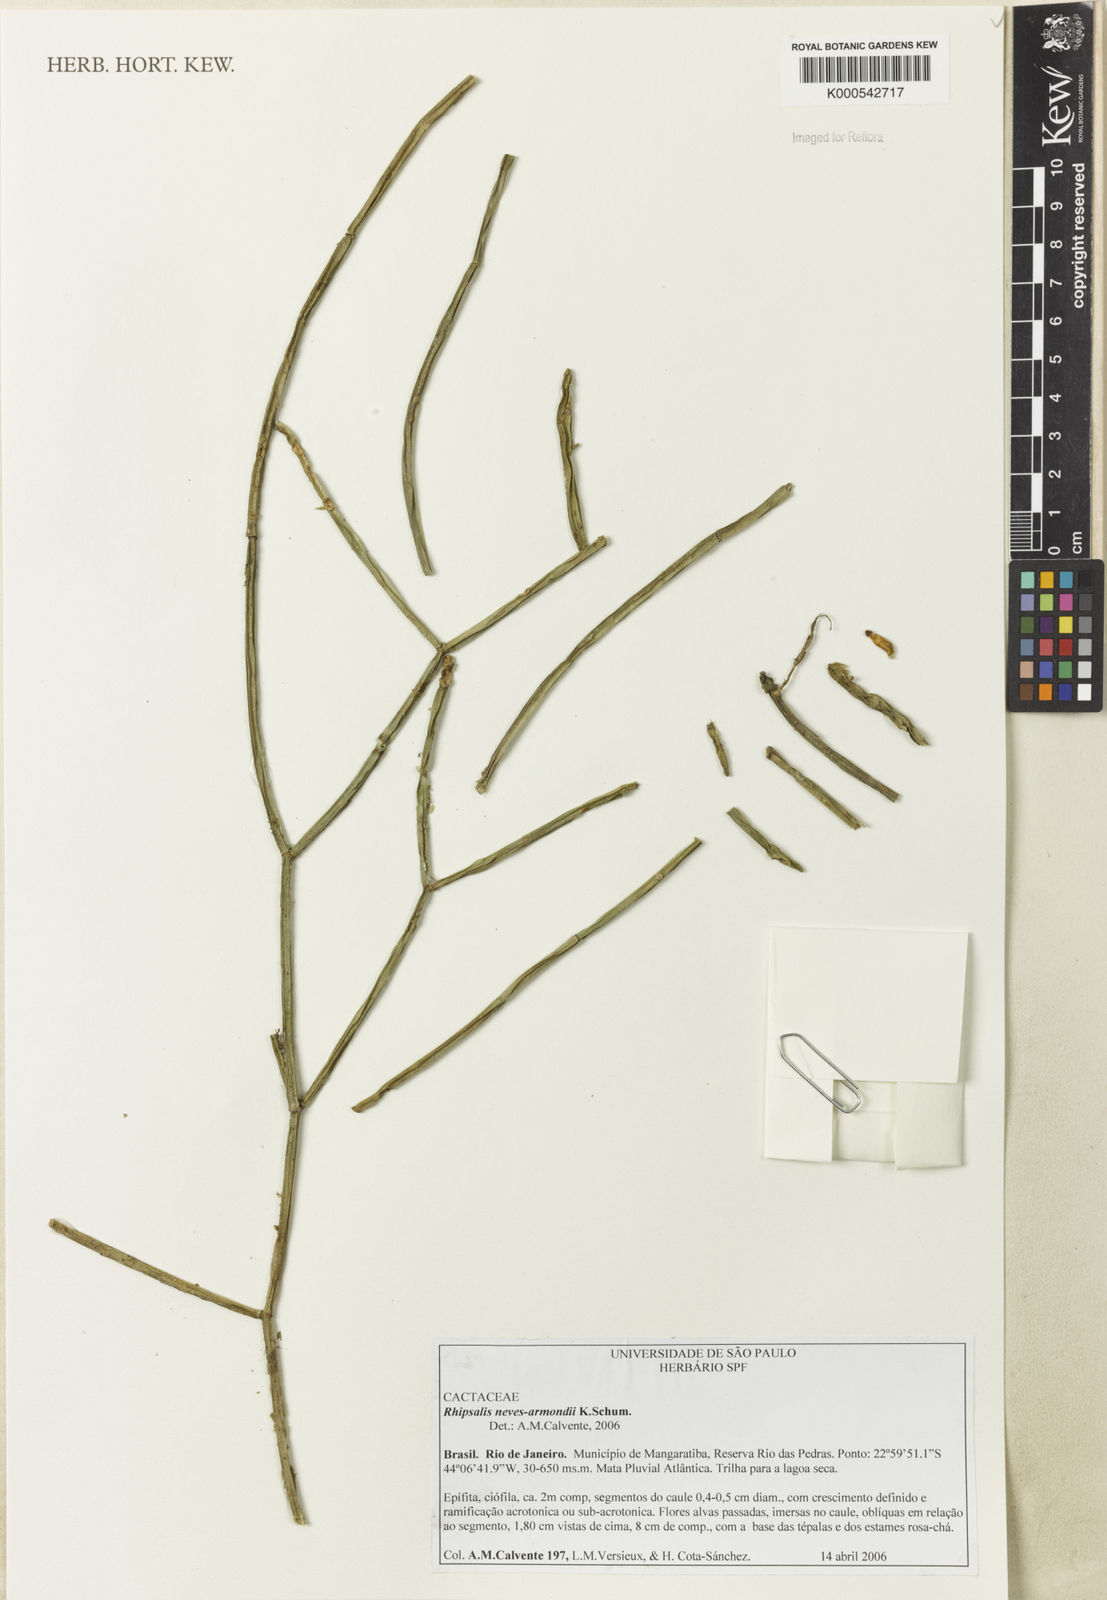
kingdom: Plantae
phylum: Tracheophyta
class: Magnoliopsida
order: Caryophyllales
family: Cactaceae
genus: Rhipsalis
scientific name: Rhipsalis neves-armondii
